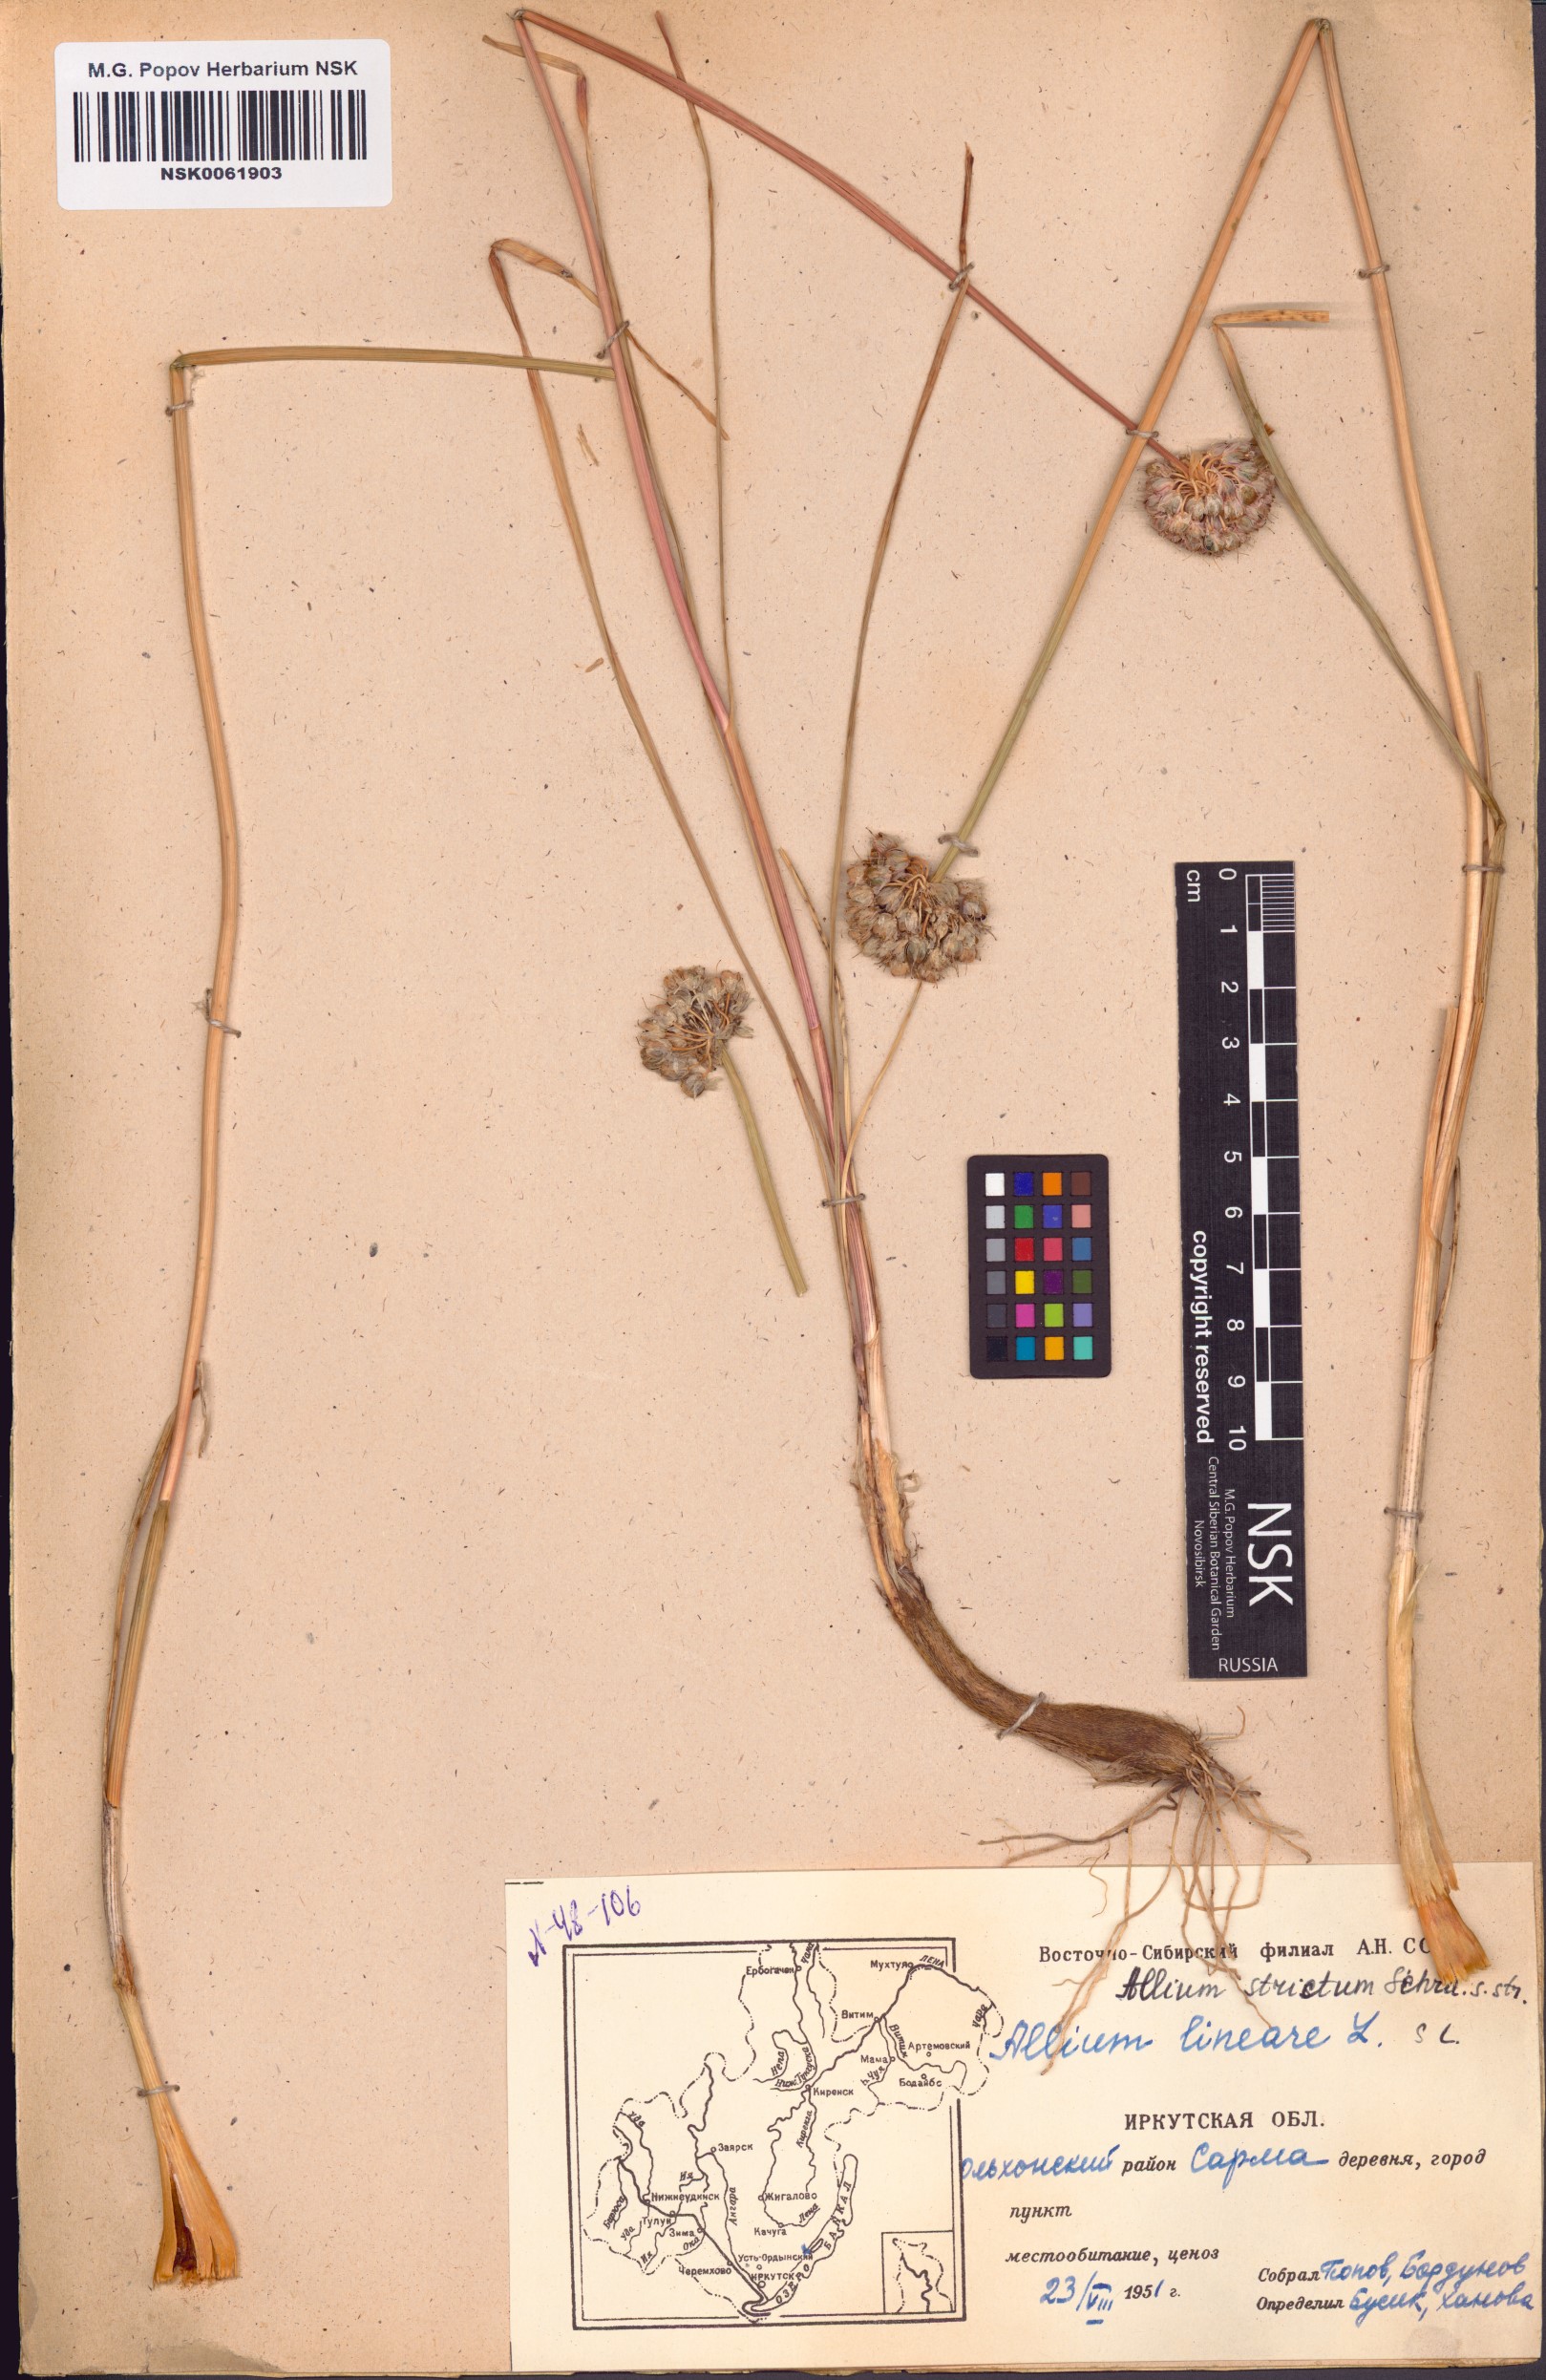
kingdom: Plantae
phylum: Tracheophyta
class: Liliopsida
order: Asparagales
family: Amaryllidaceae
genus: Allium
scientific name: Allium strictum
